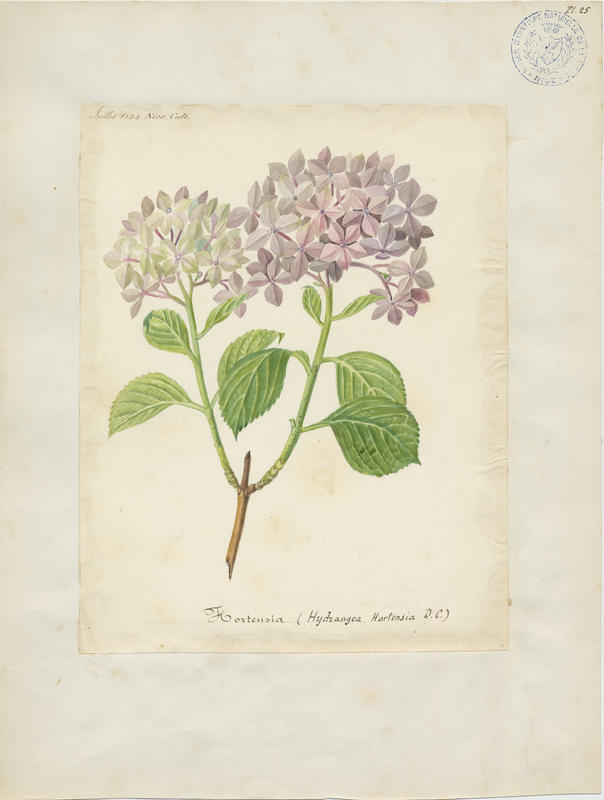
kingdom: Plantae
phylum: Tracheophyta
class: Magnoliopsida
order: Cornales
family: Hydrangeaceae
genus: Hydrangea
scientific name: Hydrangea macrophylla
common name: Hydrangea
